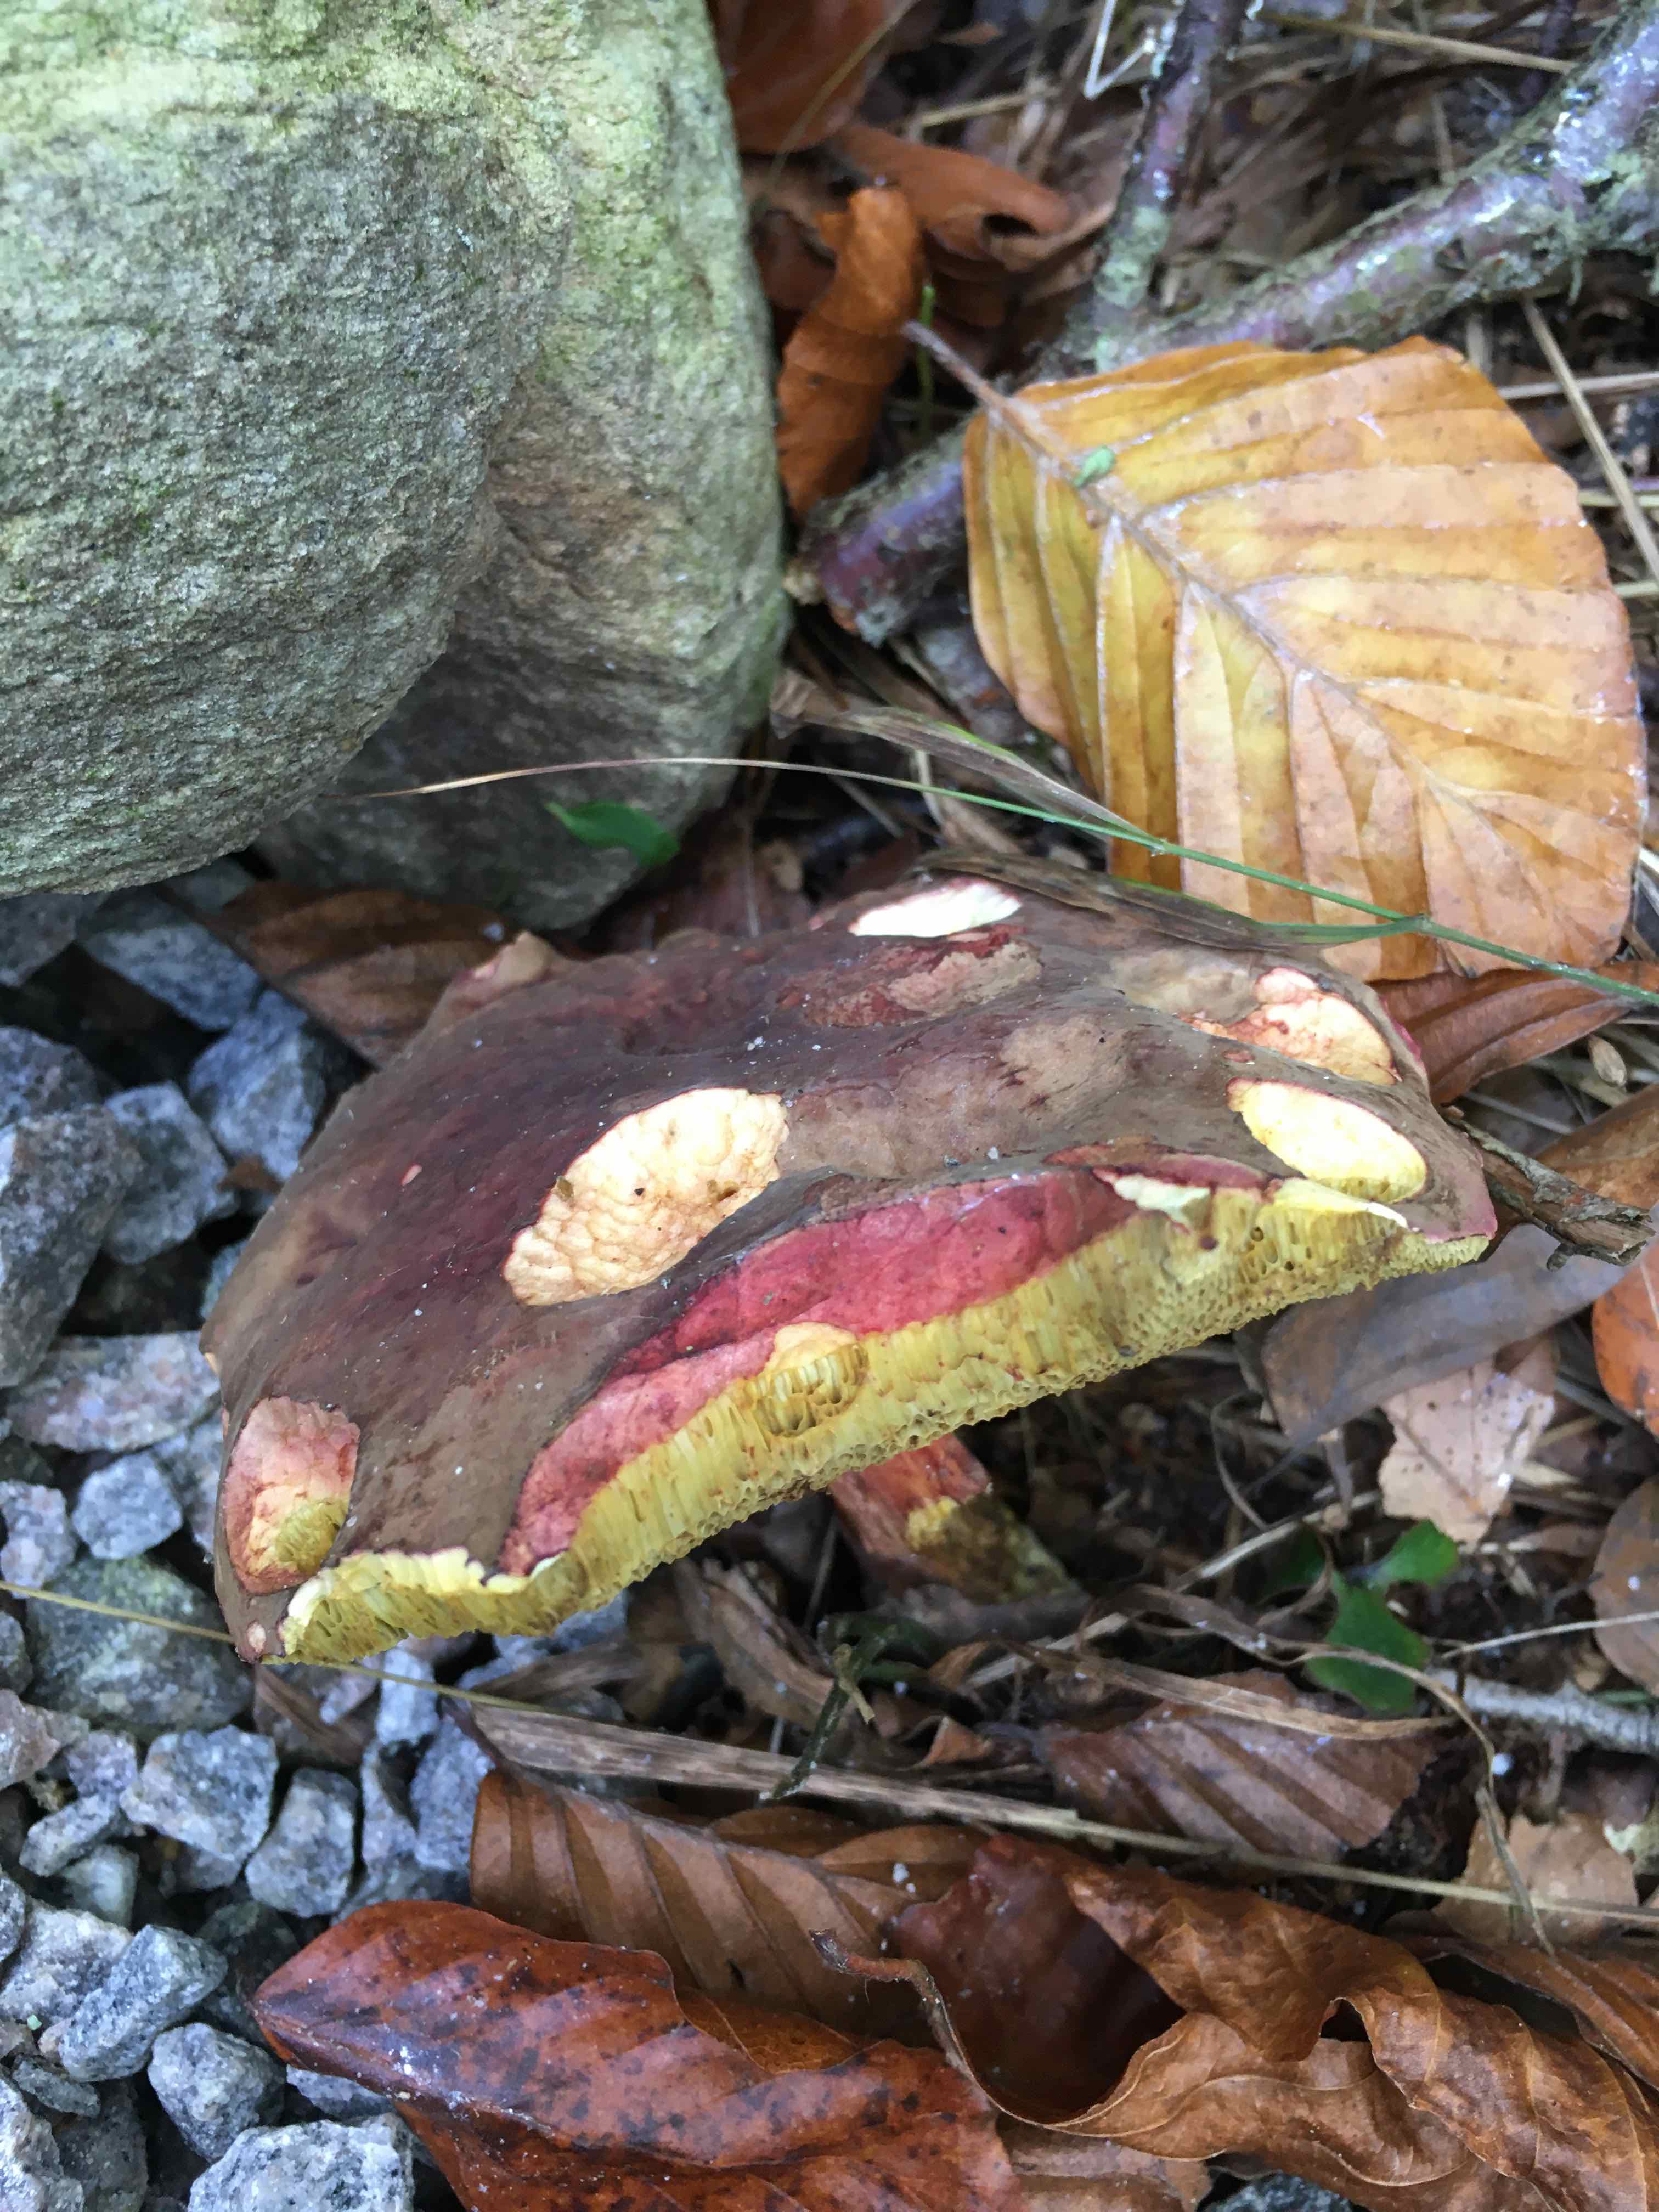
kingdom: Fungi
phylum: Basidiomycota
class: Agaricomycetes
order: Boletales
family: Boletaceae
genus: Xerocomellus
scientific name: Xerocomellus pruinatus
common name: dugget rørhat
